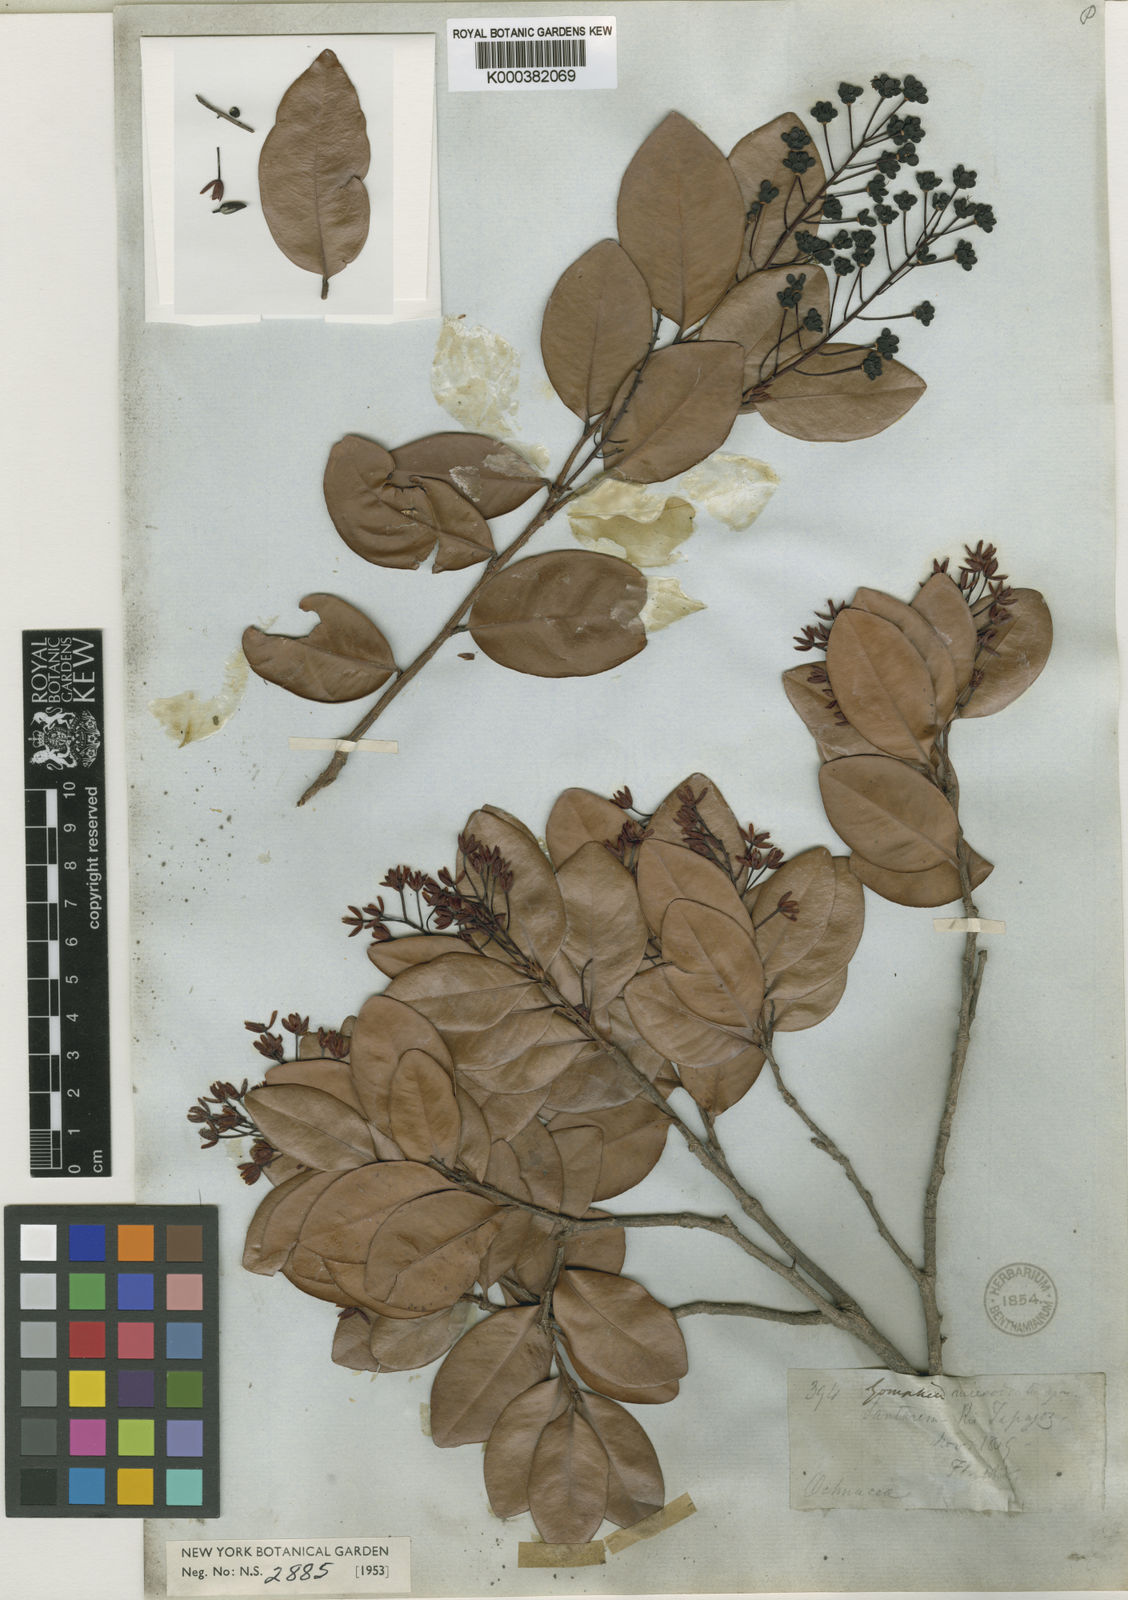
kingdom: Plantae
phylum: Tracheophyta
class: Magnoliopsida
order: Malpighiales
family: Ochnaceae
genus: Ouratea
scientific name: Ouratea microdonta
